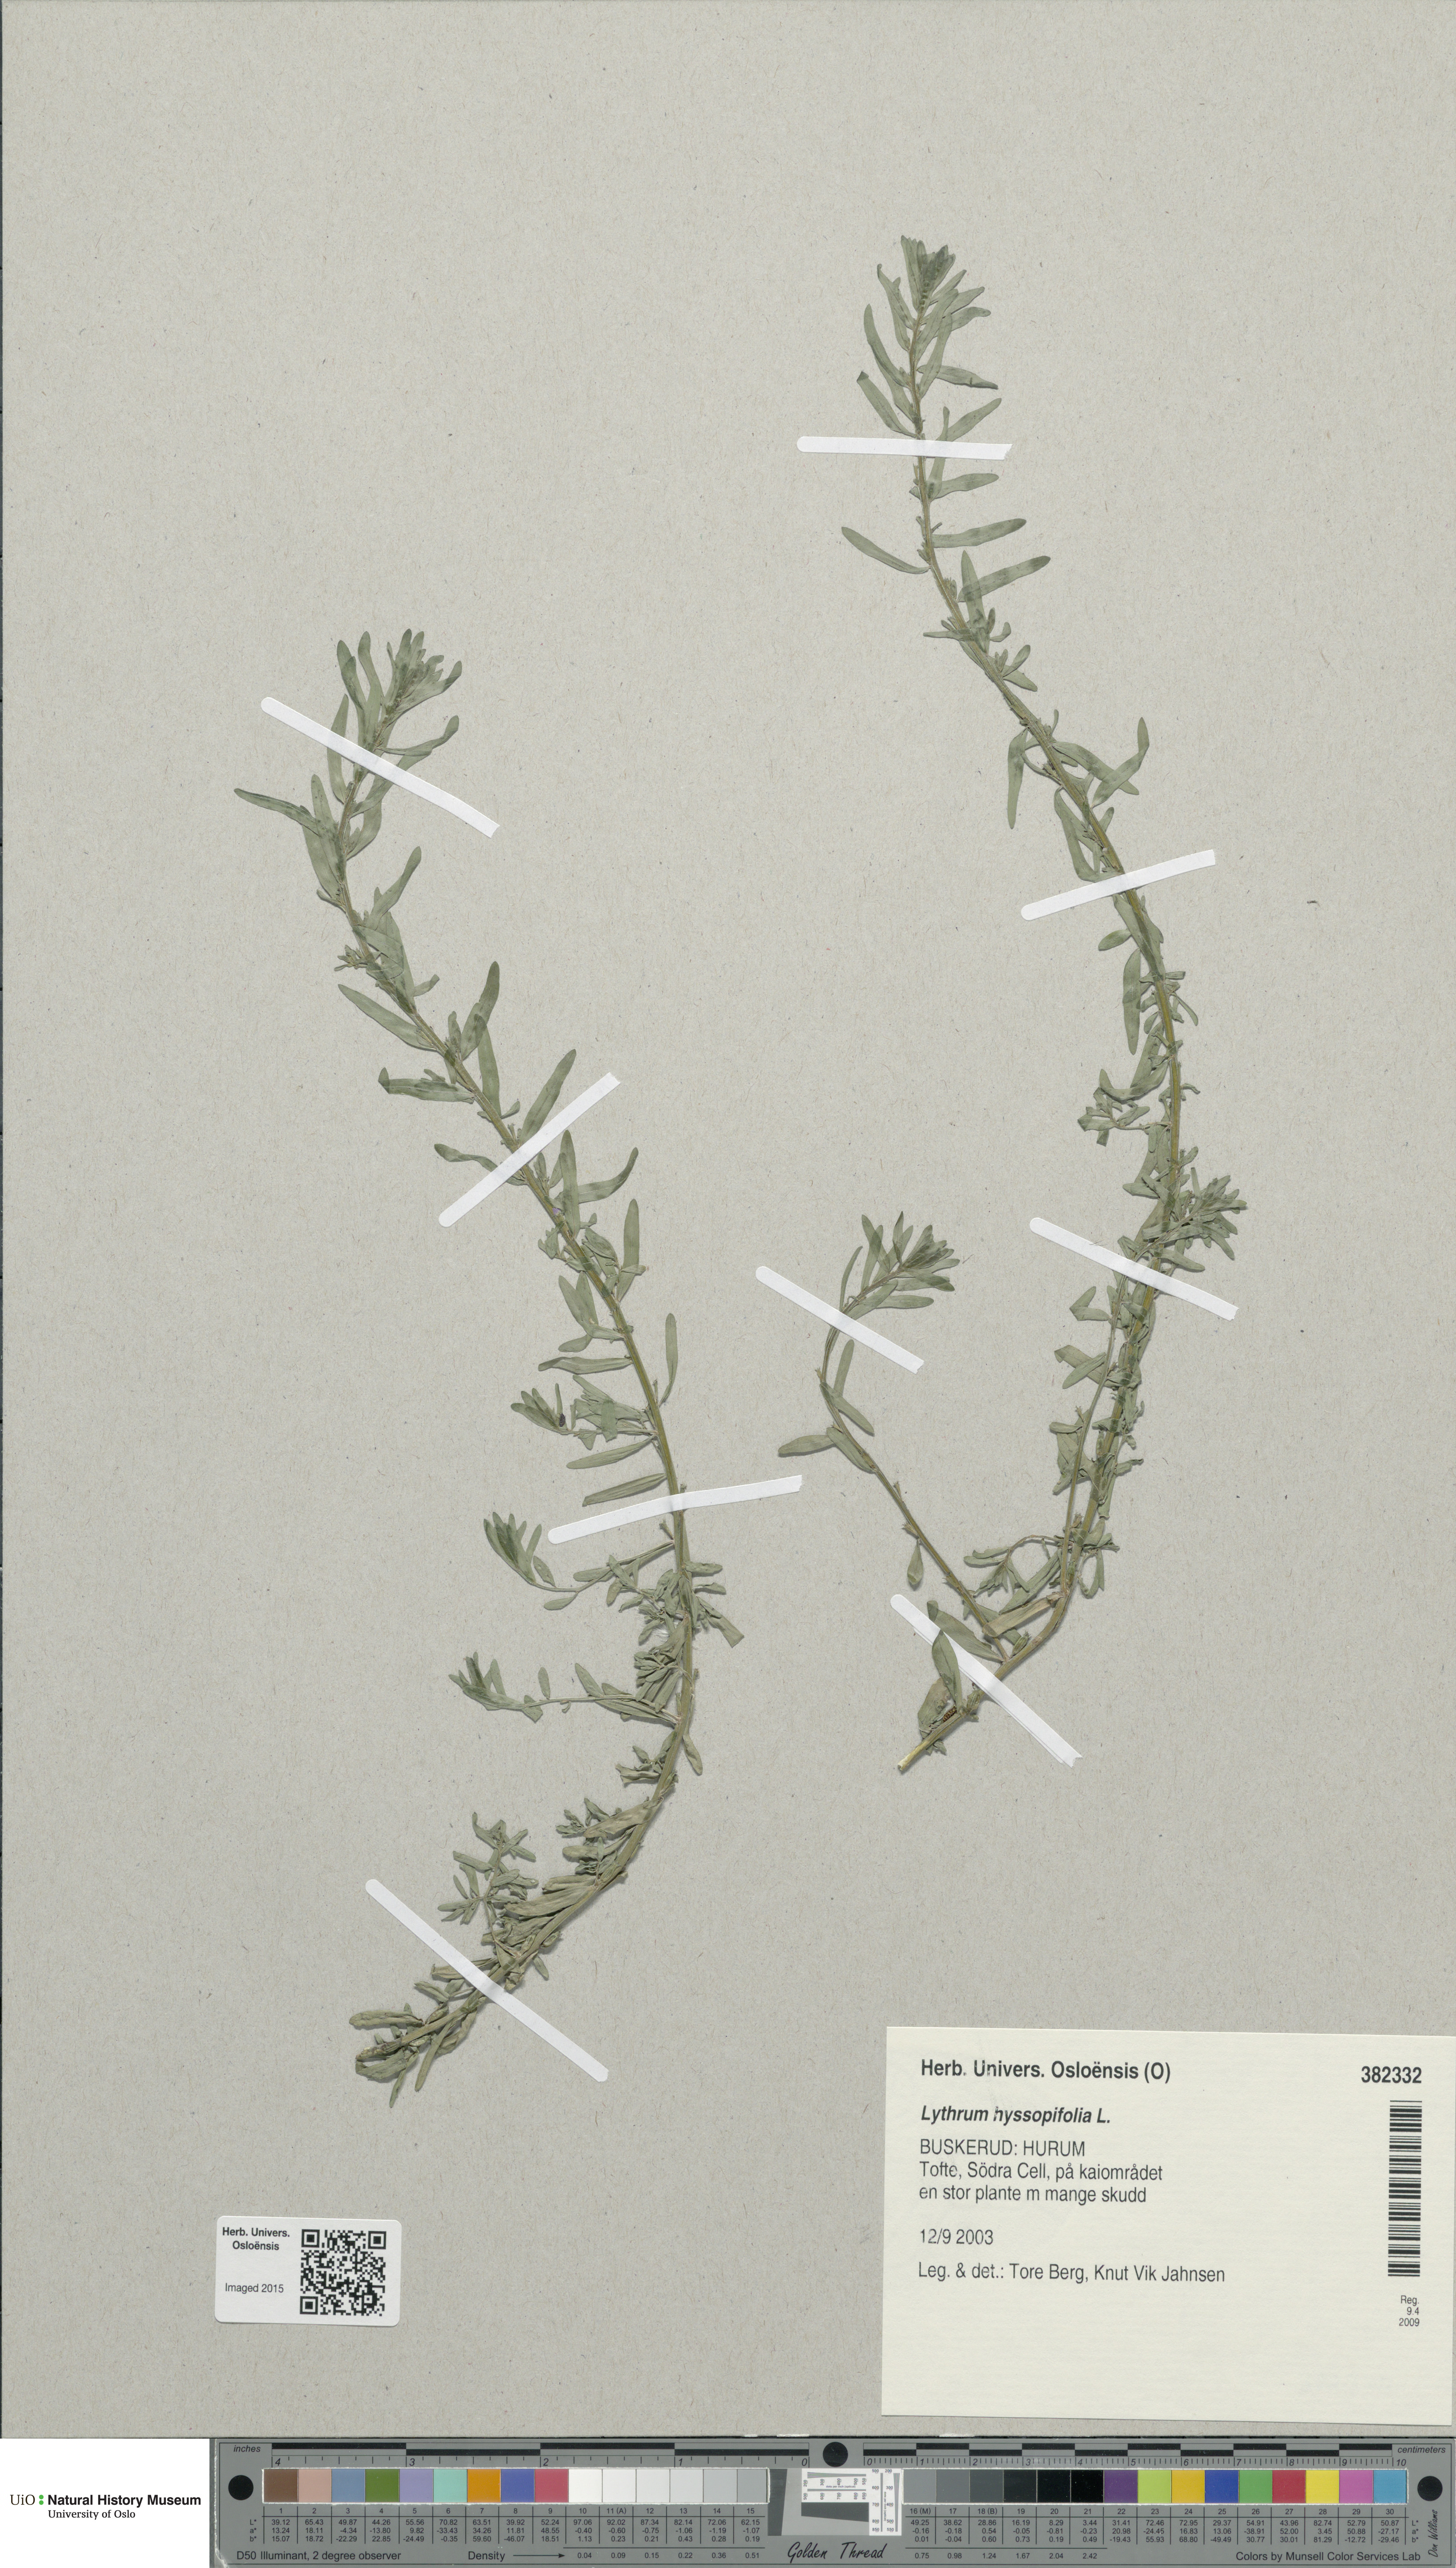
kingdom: Plantae
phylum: Tracheophyta
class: Magnoliopsida
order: Myrtales
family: Lythraceae
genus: Lythrum
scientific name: Lythrum hyssopifolia
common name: Grass-poly
